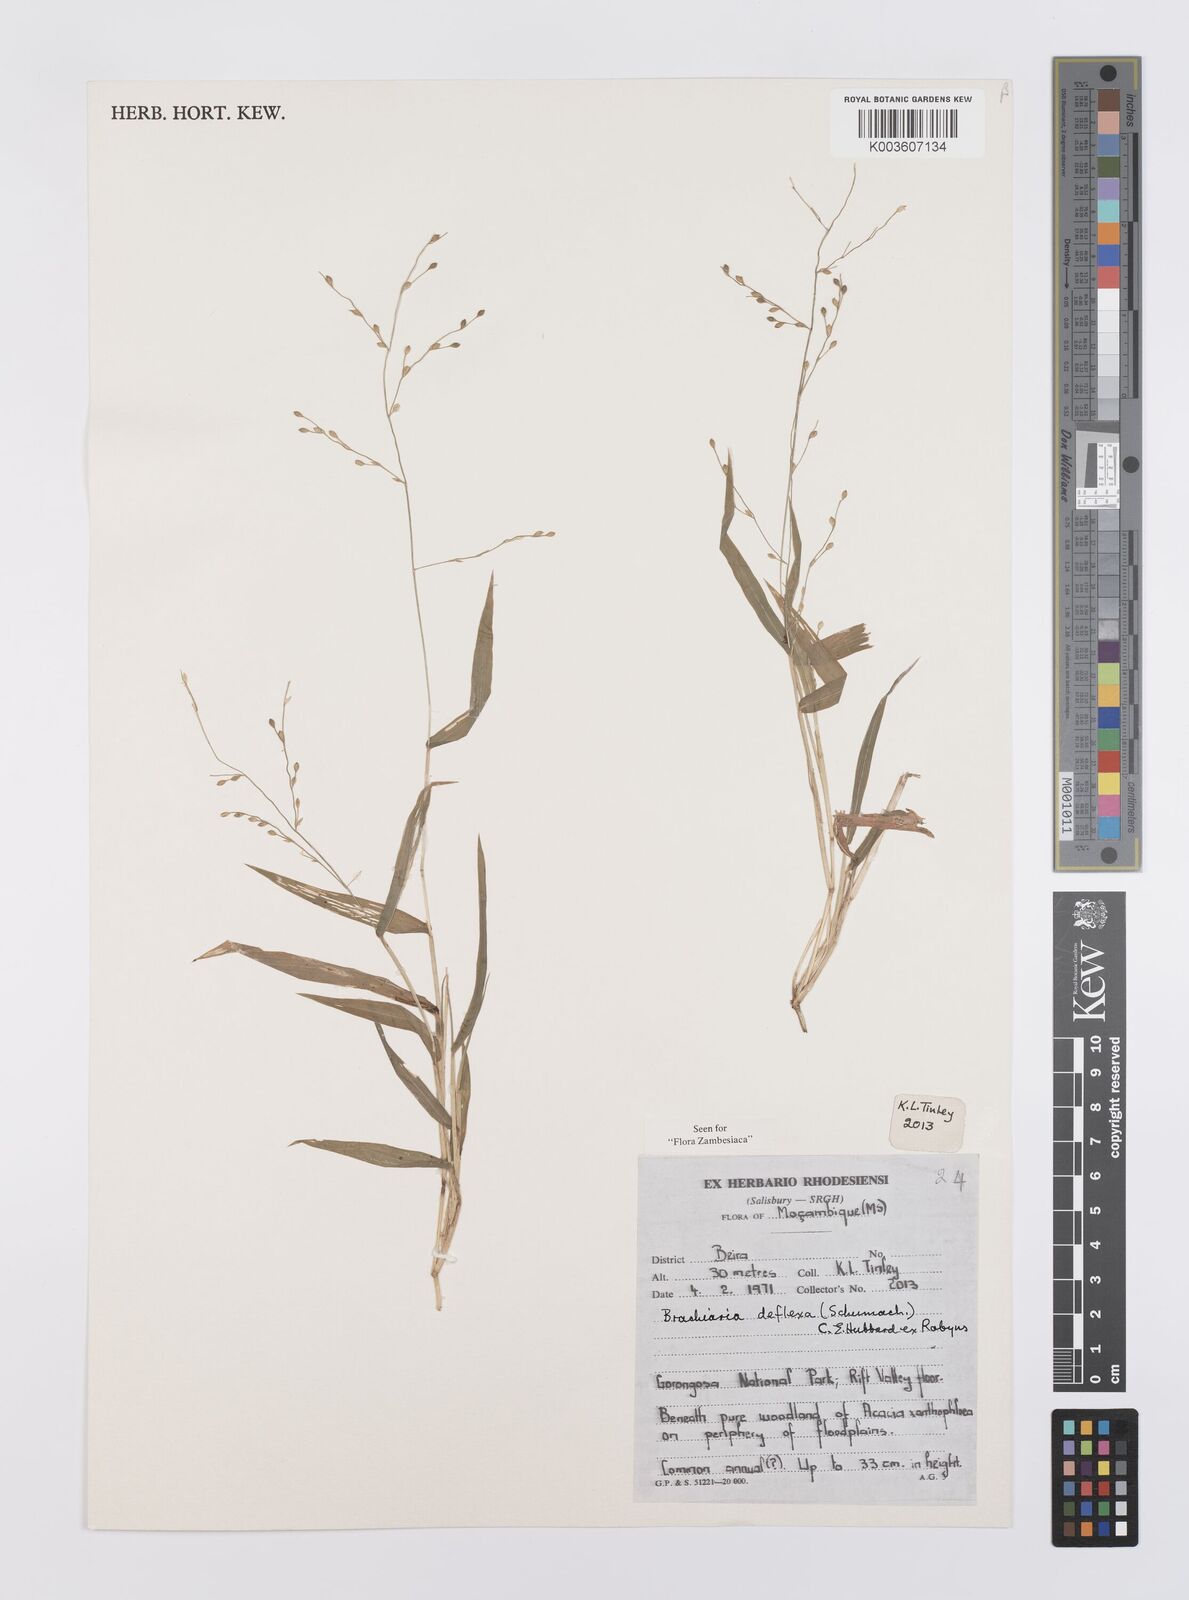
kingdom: Plantae
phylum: Tracheophyta
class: Liliopsida
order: Poales
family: Poaceae
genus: Urochloa
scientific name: Urochloa deflexa
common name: Guinea millet
